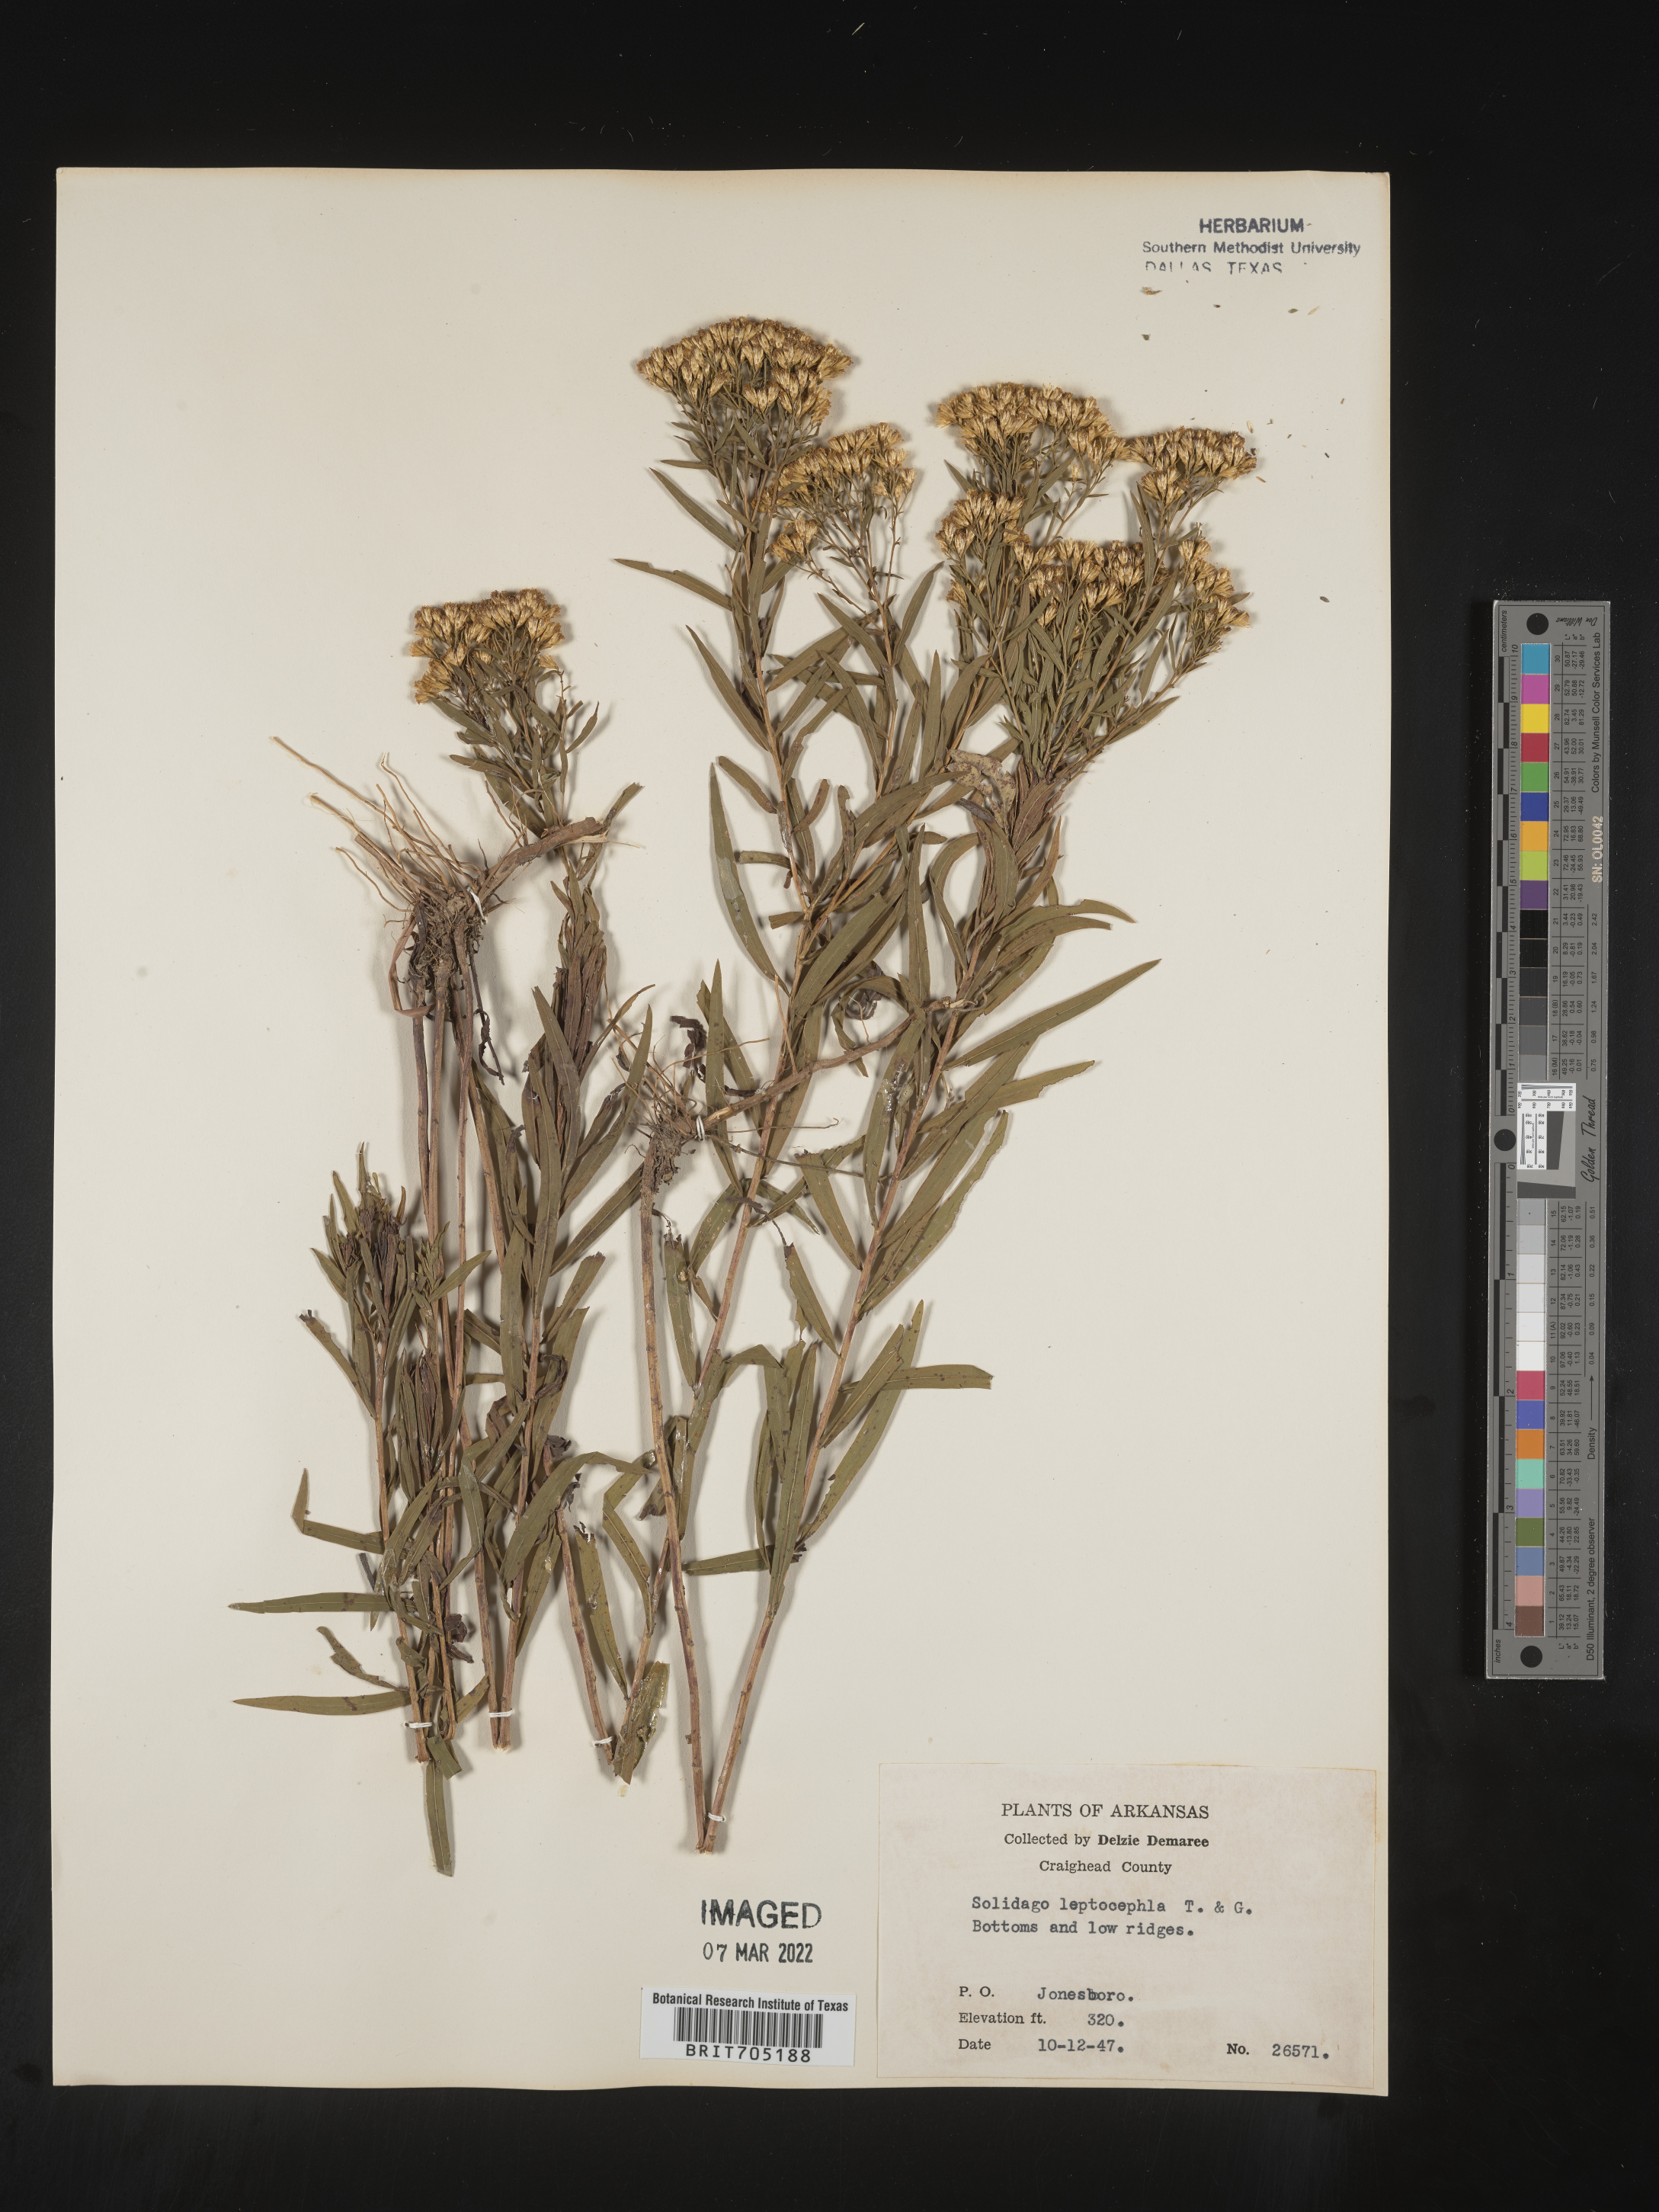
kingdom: Plantae
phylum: Tracheophyta
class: Magnoliopsida
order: Asterales
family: Asteraceae
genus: Euthamia
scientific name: Euthamia leptocephala
